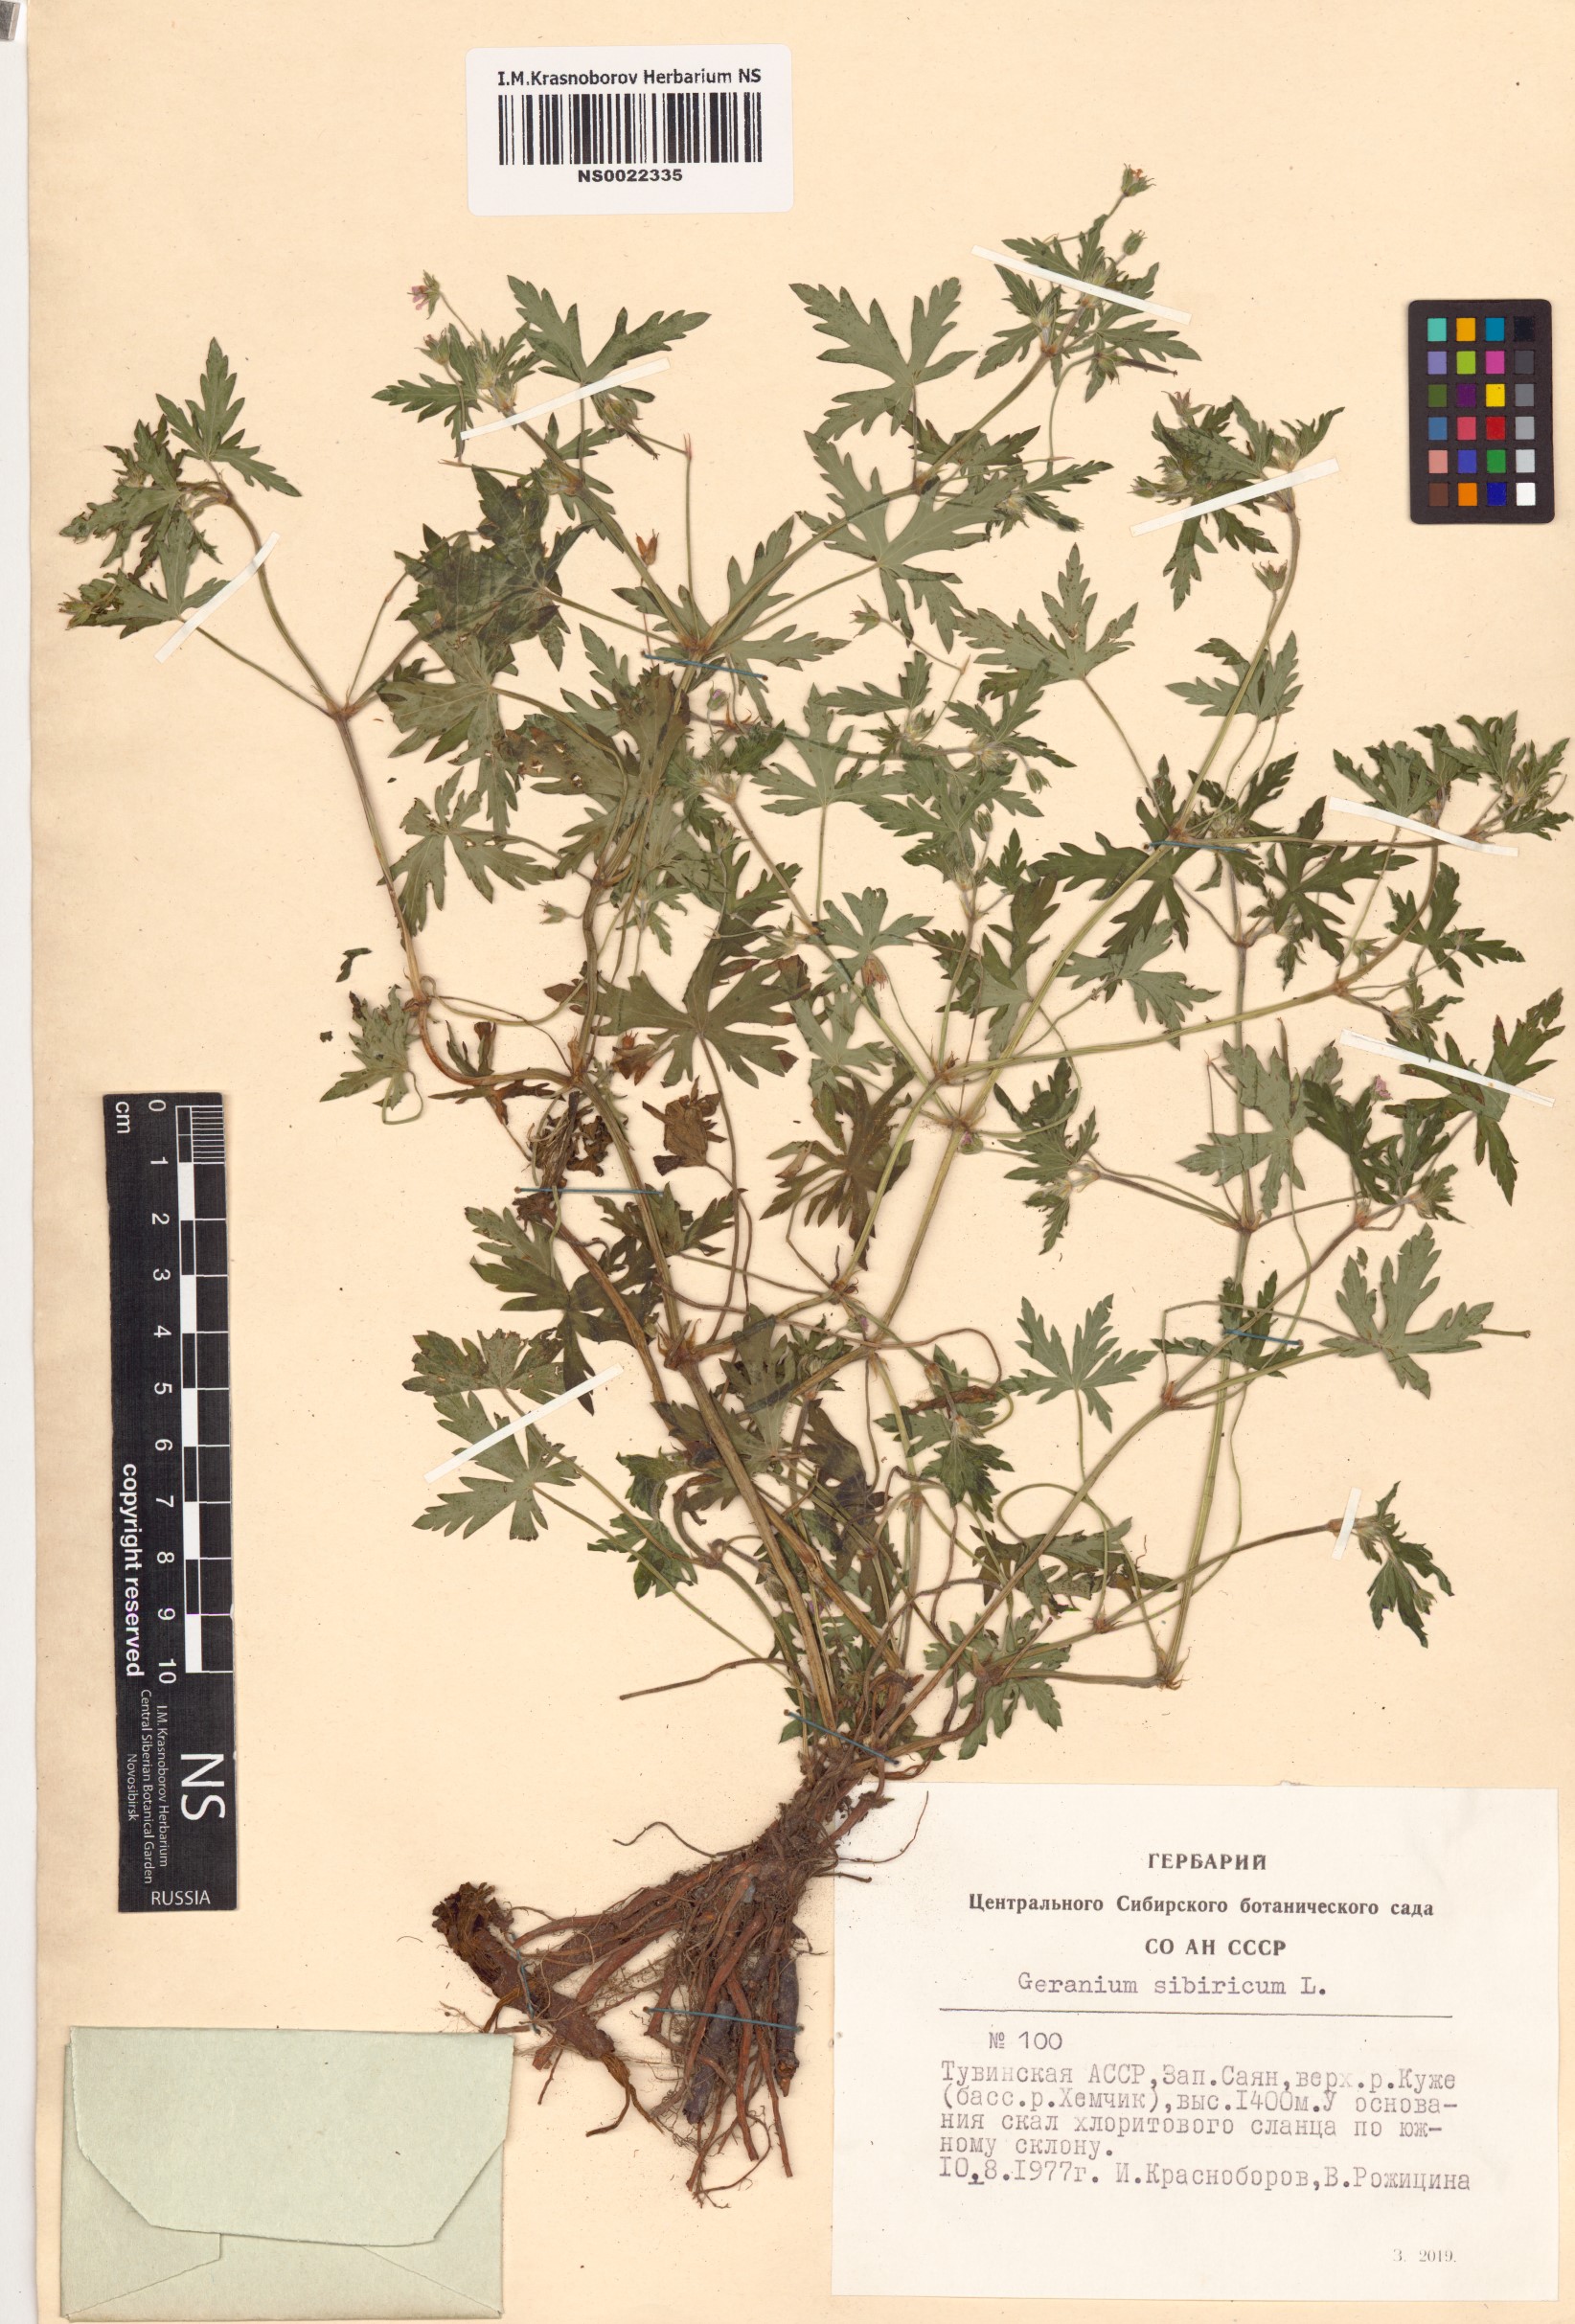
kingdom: Plantae
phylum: Tracheophyta
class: Magnoliopsida
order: Geraniales
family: Geraniaceae
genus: Geranium
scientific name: Geranium sibiricum
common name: Siberian crane's-bill
